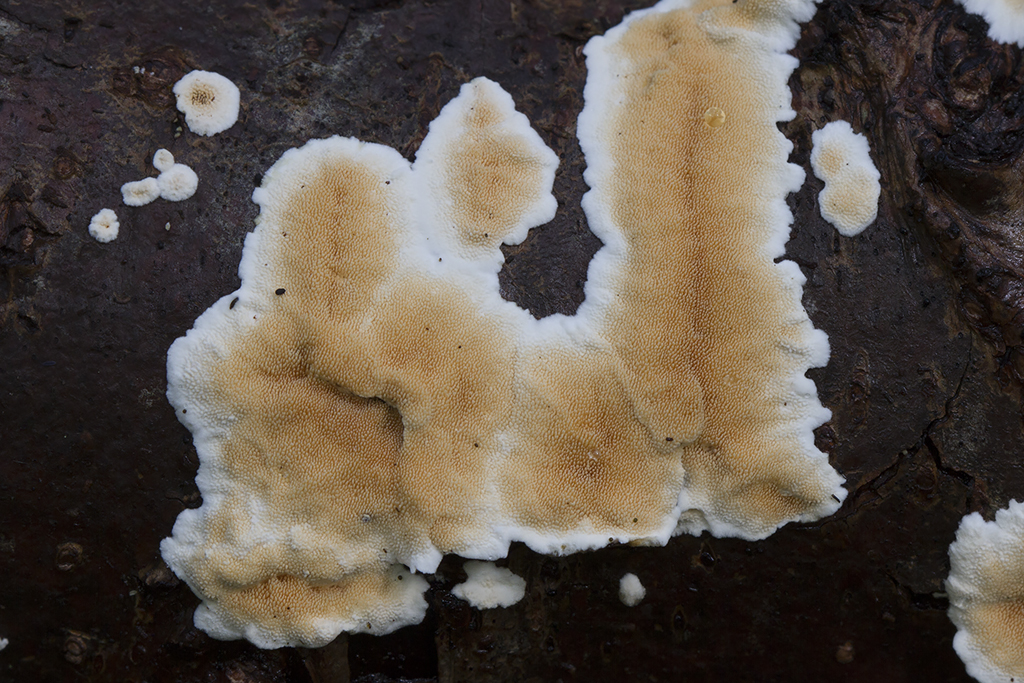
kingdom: Fungi
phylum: Basidiomycota
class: Agaricomycetes
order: Polyporales
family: Steccherinaceae
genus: Steccherinum
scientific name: Steccherinum ochraceum
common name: almindelig skønpig
